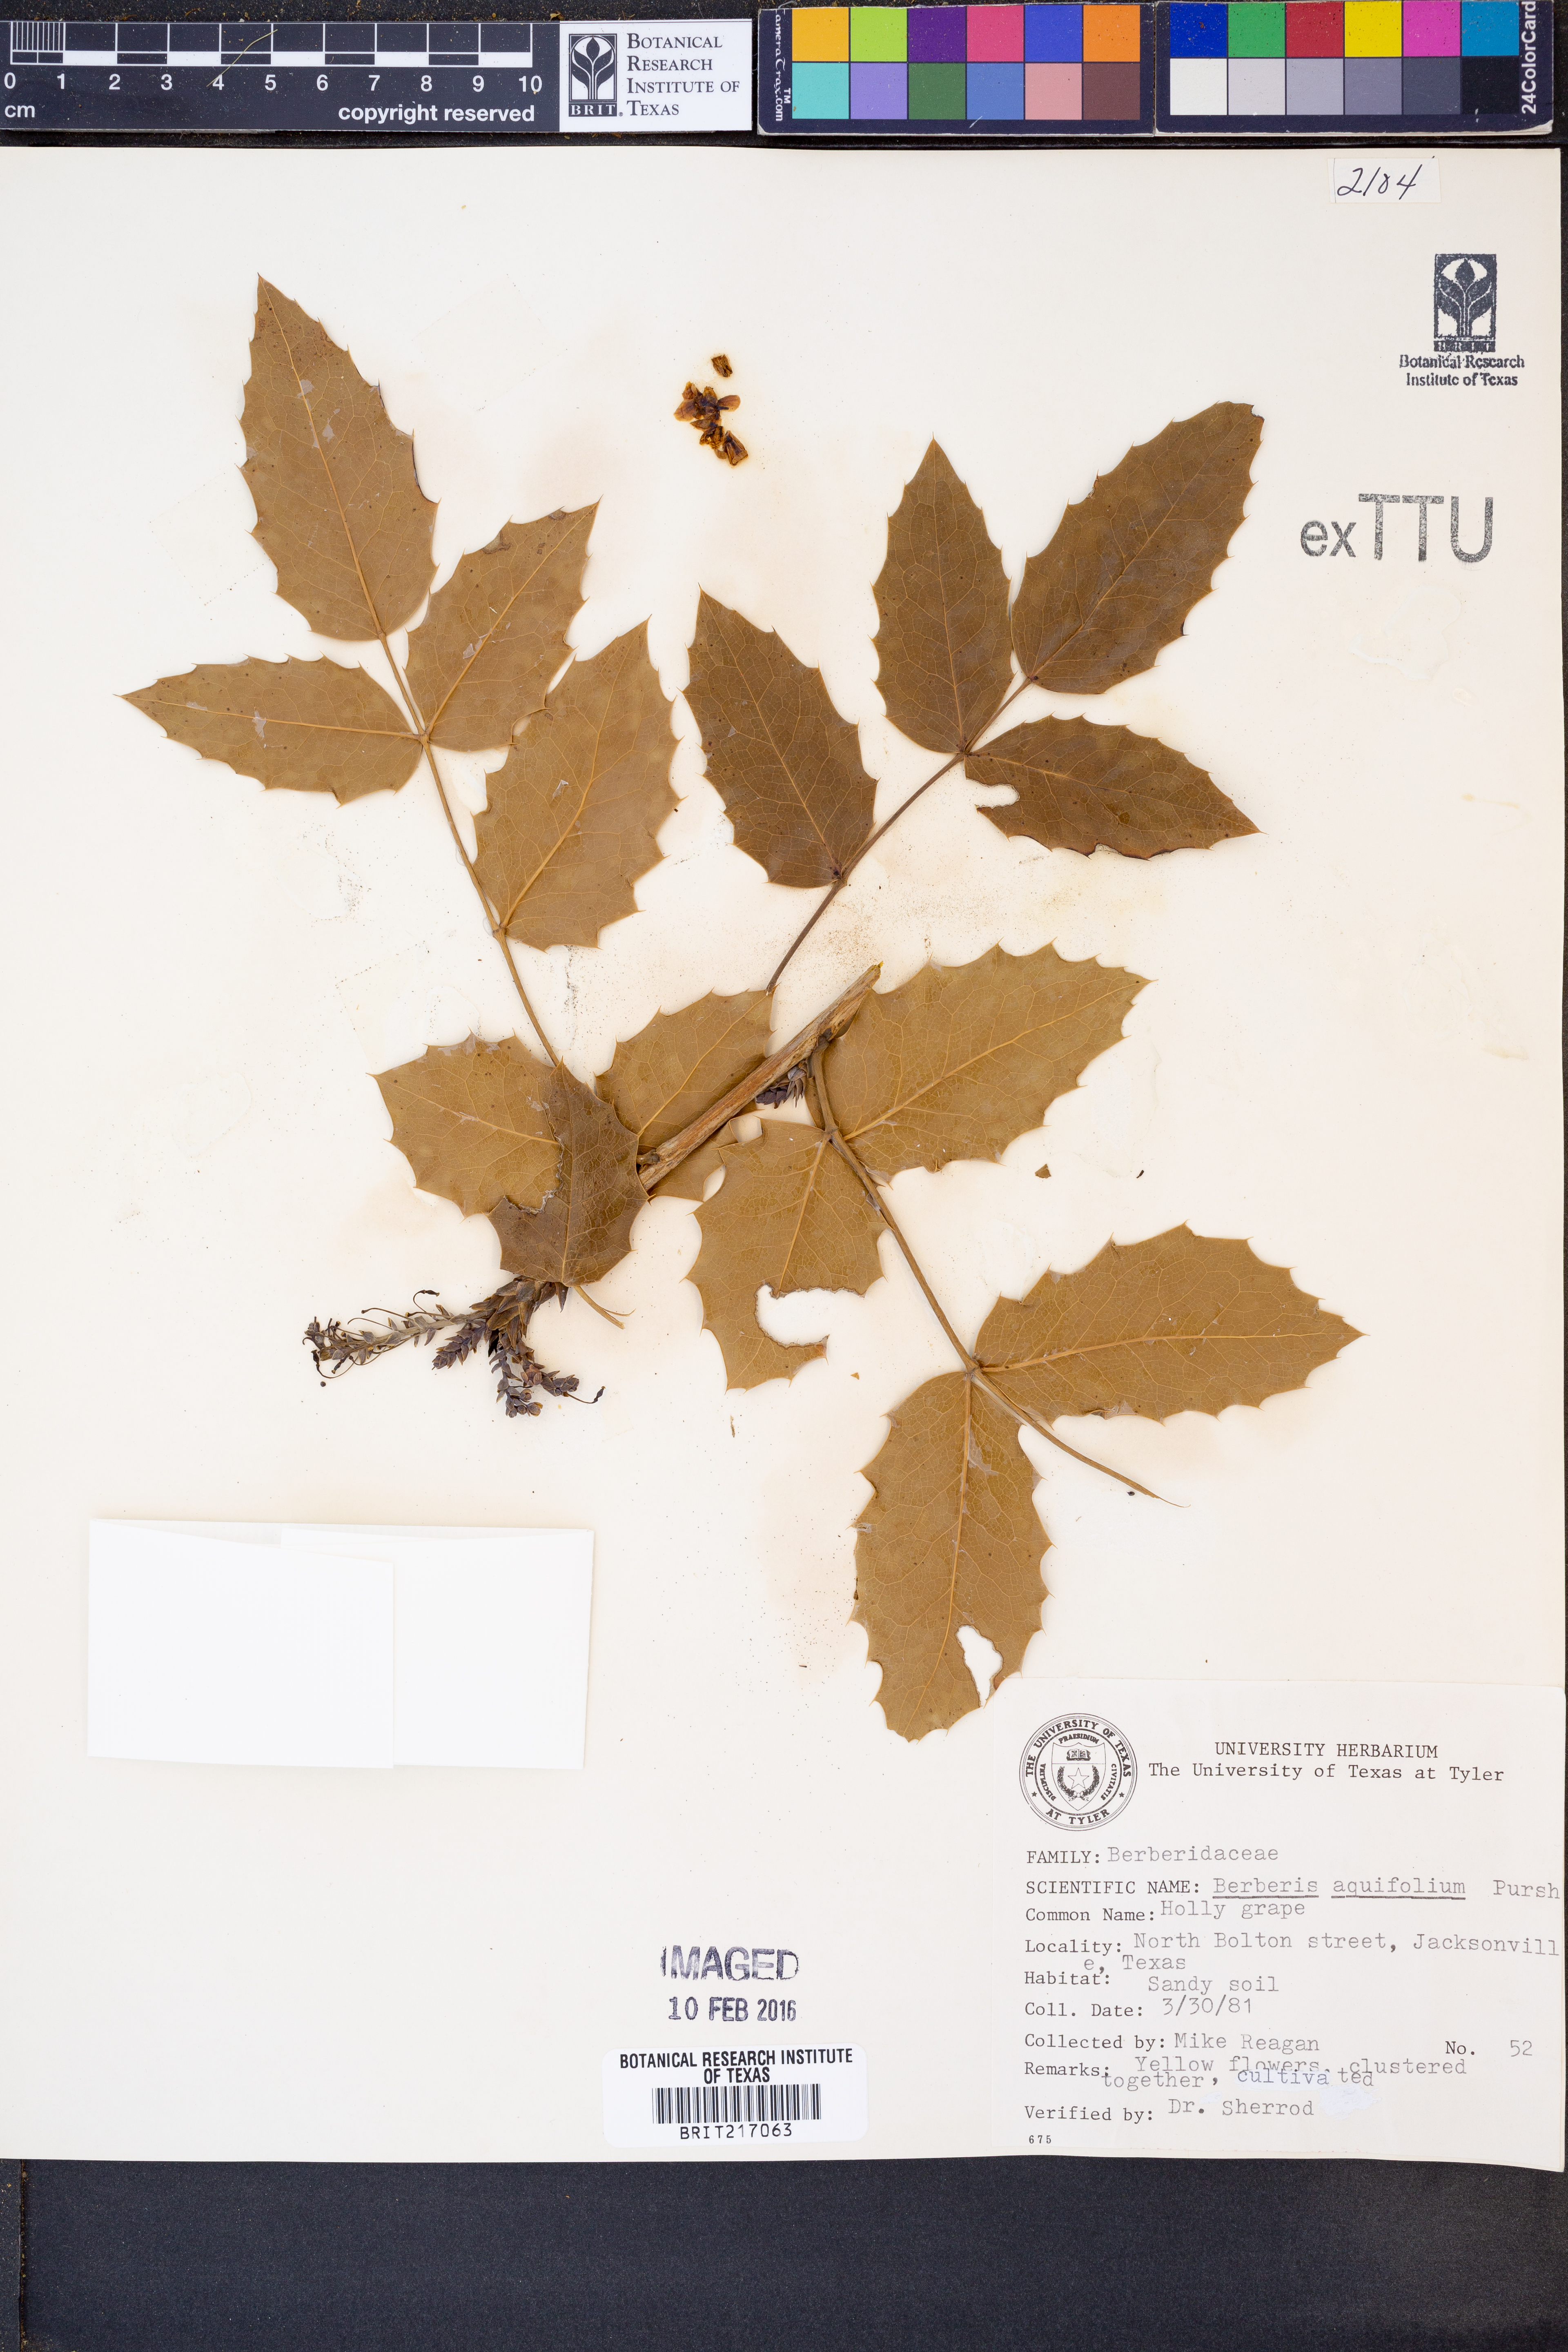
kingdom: Plantae
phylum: Tracheophyta
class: Magnoliopsida
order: Ranunculales
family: Berberidaceae
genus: Mahonia
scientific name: Mahonia aquifolium
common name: Oregon-grape
